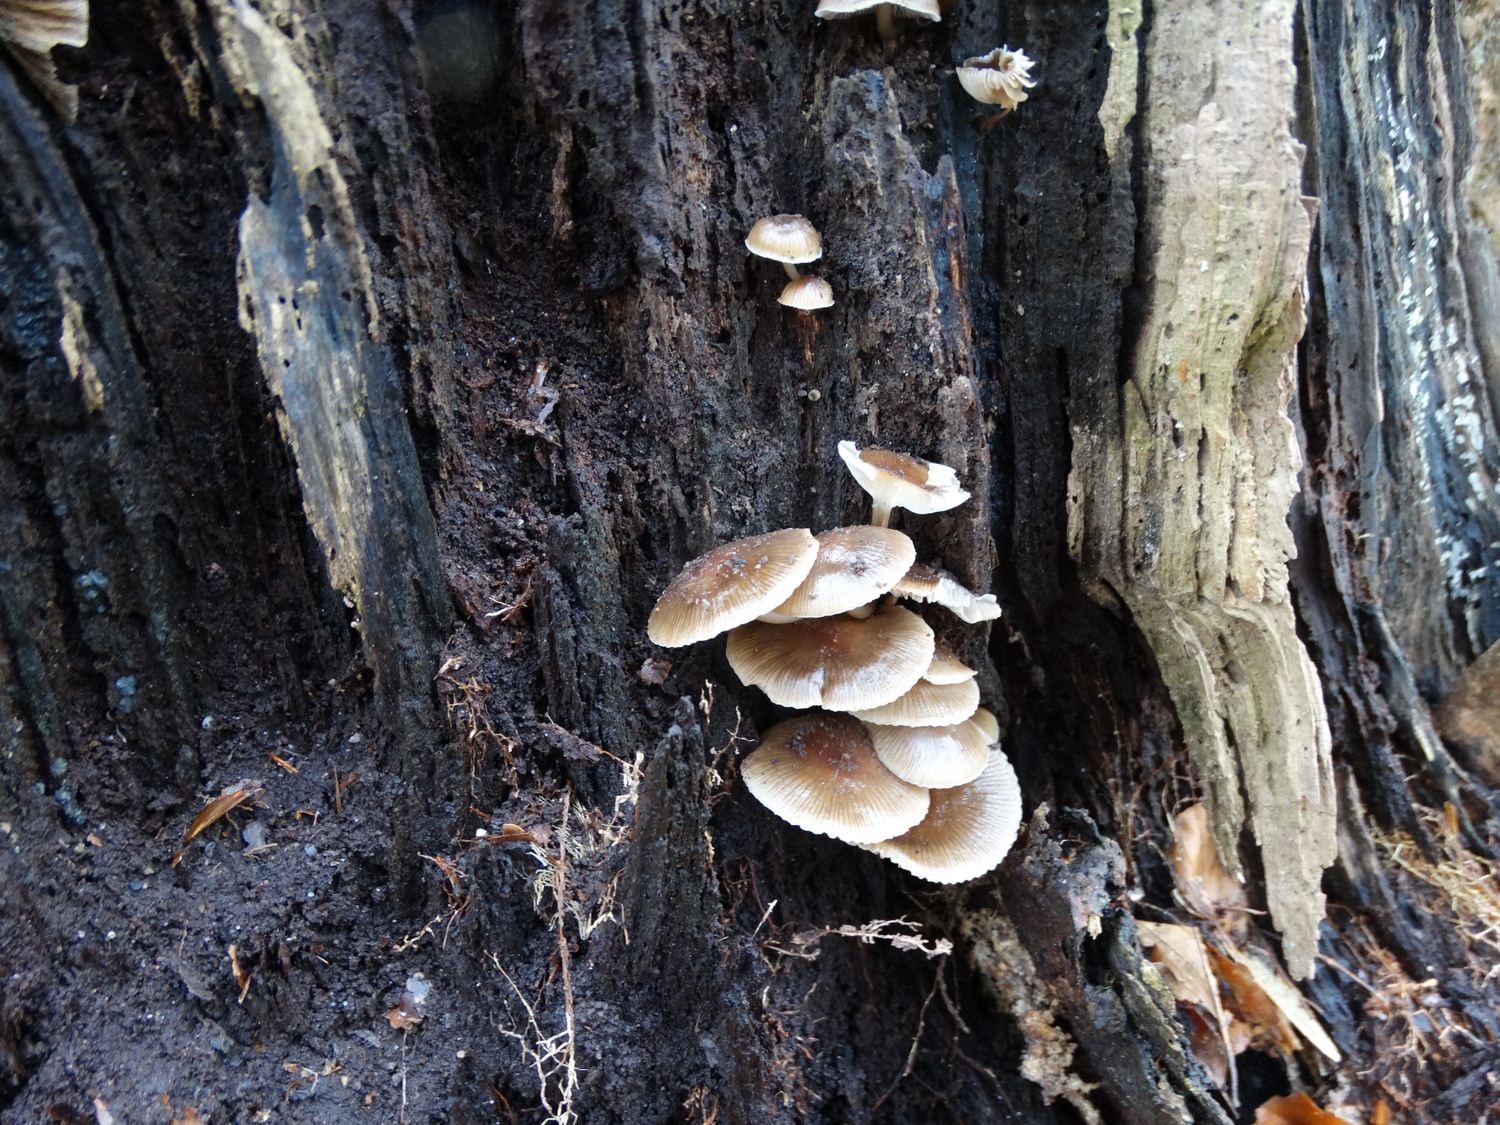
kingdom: Fungi
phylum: Basidiomycota
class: Agaricomycetes
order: Agaricales
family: Mycenaceae
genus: Mycena
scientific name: Mycena tintinnabulum
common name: vinter-huesvamp
